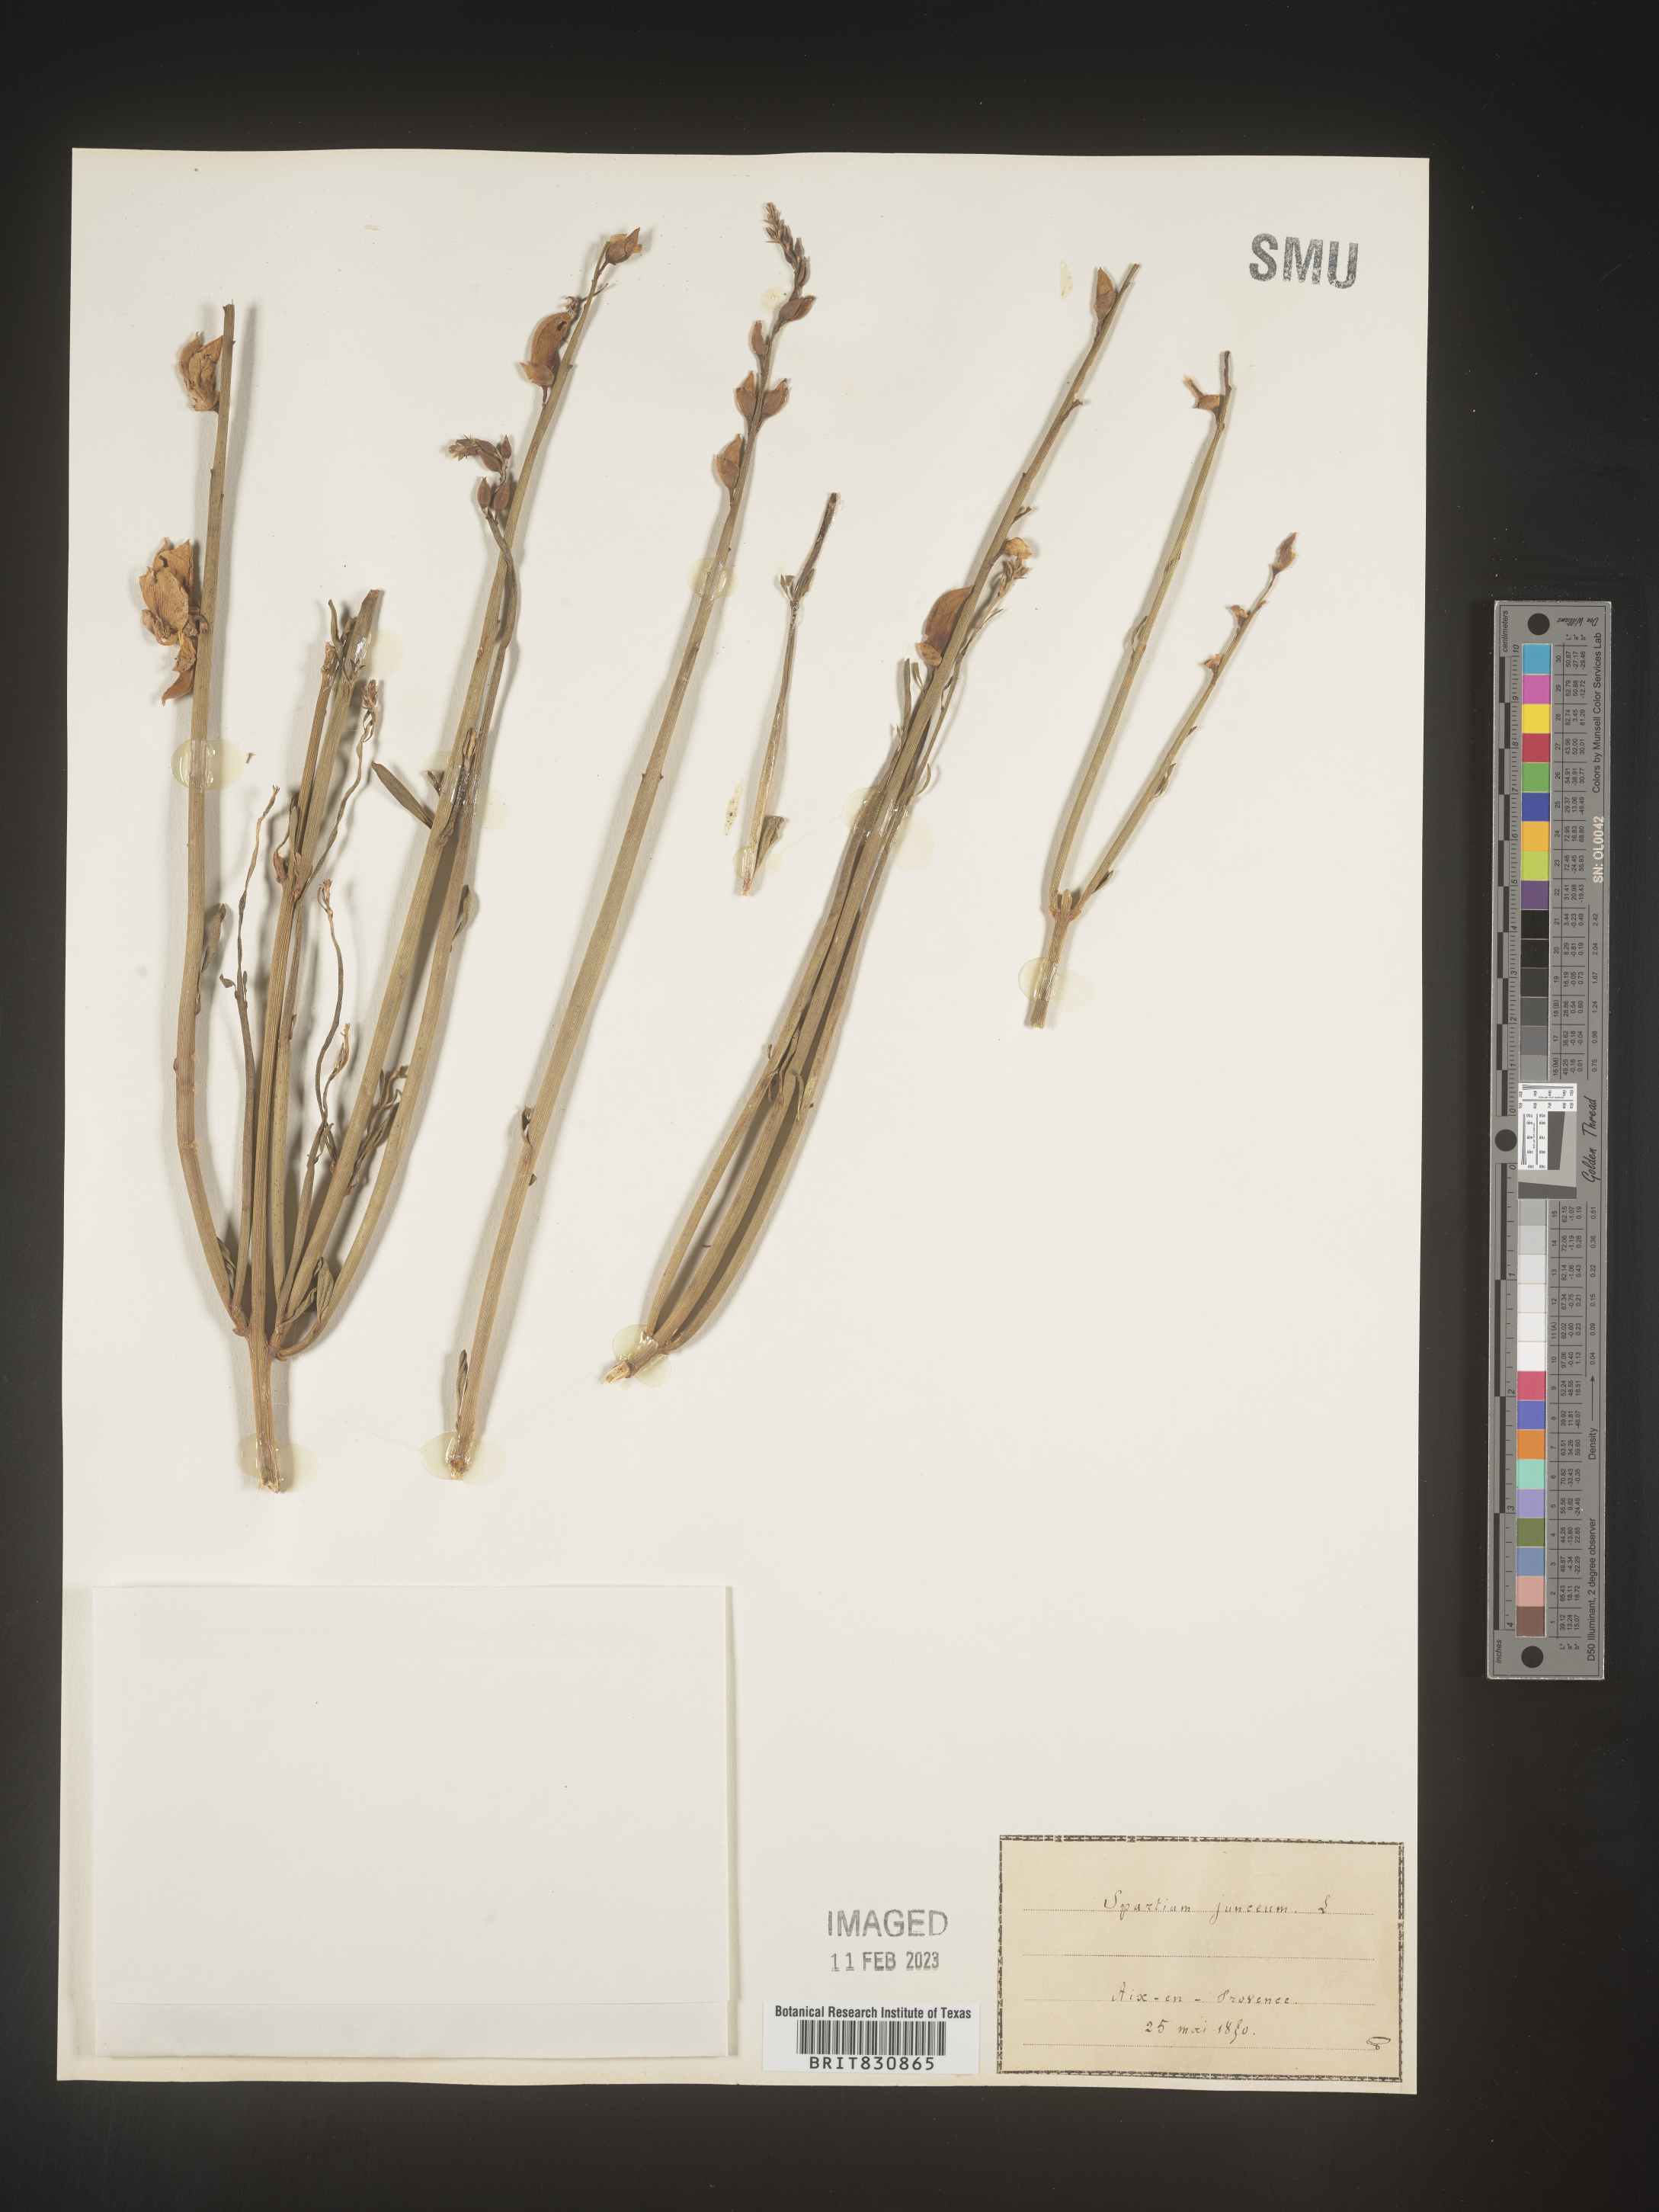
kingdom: Plantae
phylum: Tracheophyta
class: Magnoliopsida
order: Fabales
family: Fabaceae
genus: Spartium
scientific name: Spartium
